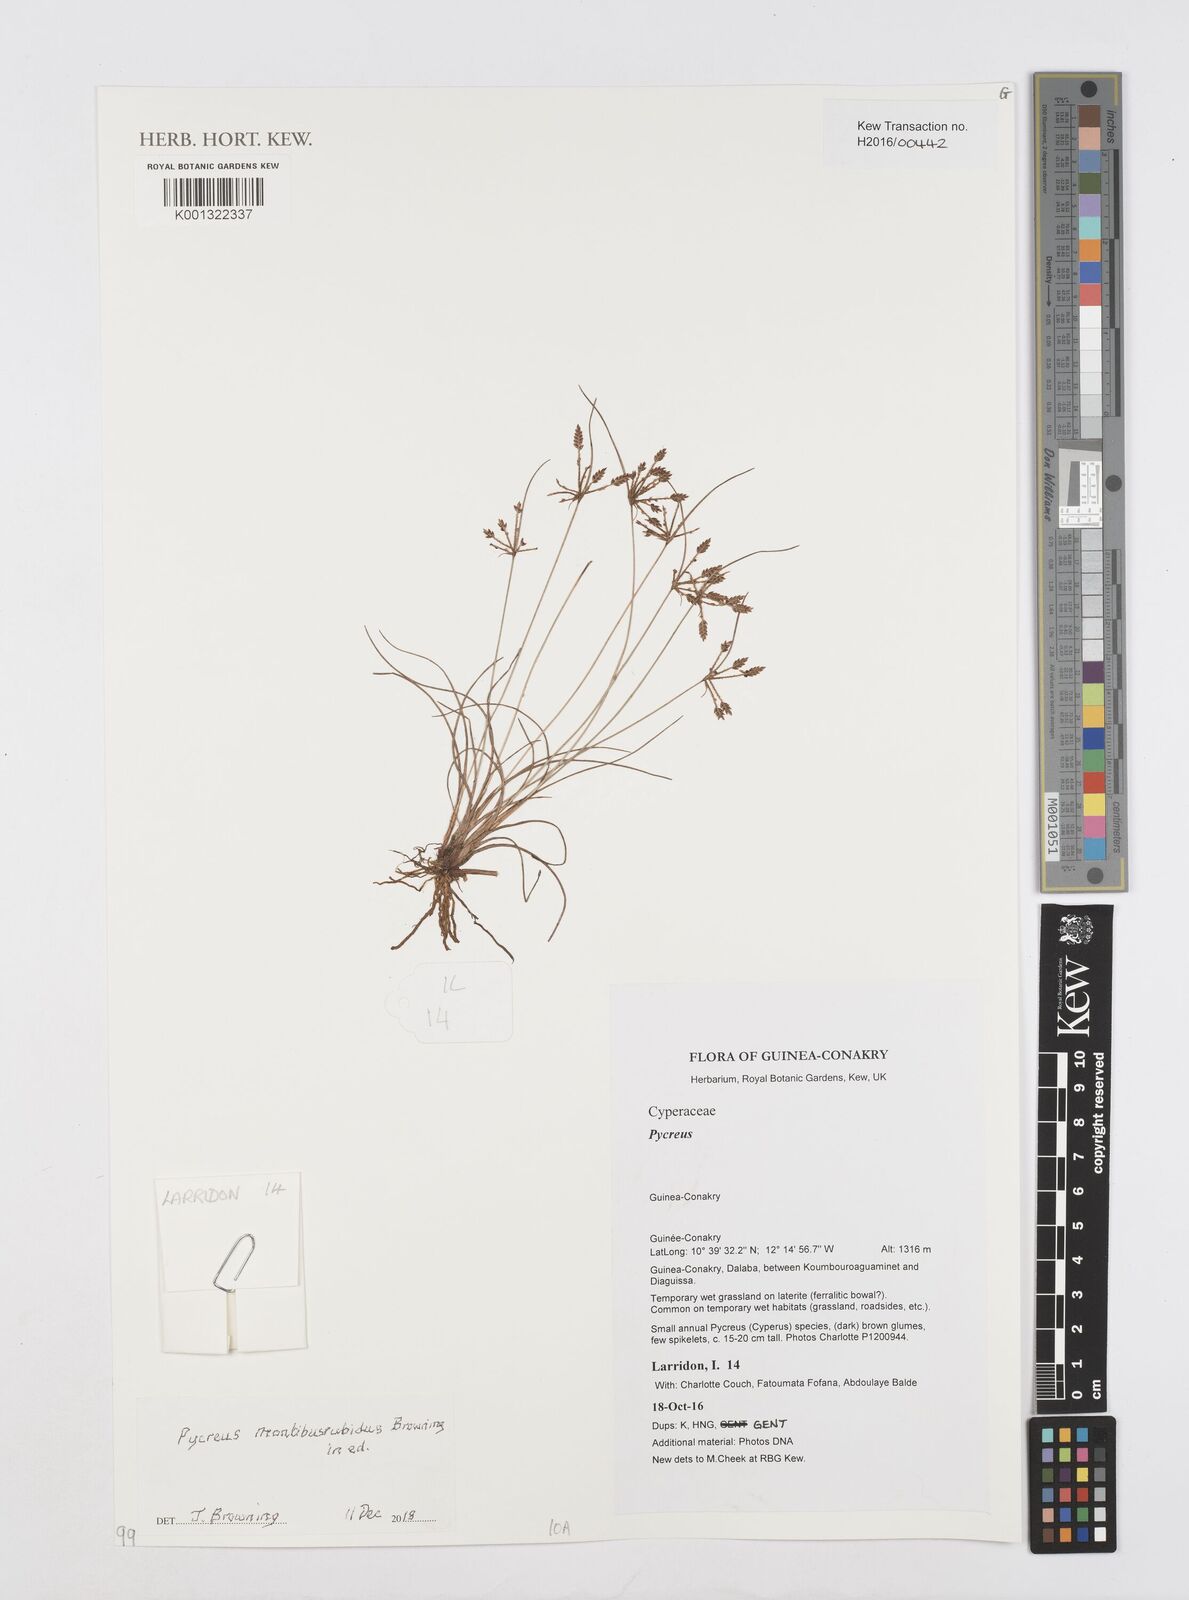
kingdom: Plantae
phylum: Tracheophyta
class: Liliopsida
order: Poales
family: Cyperaceae
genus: Cyperus
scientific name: Cyperus
